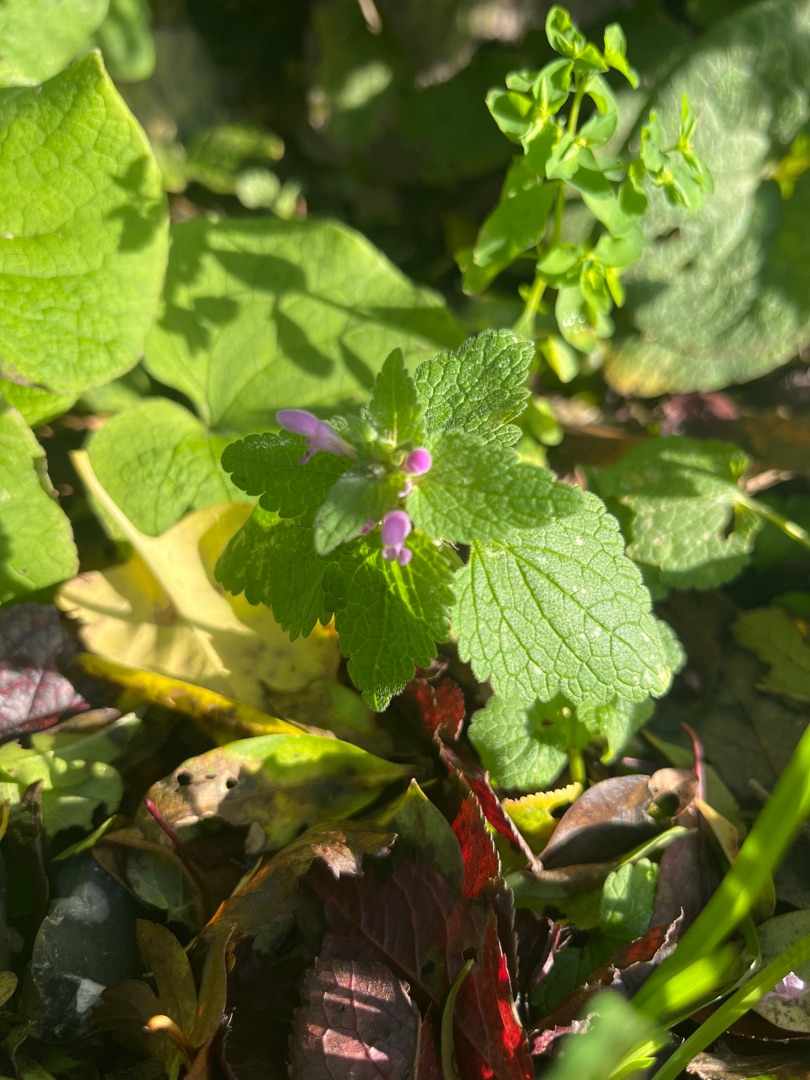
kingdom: Plantae
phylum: Tracheophyta
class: Magnoliopsida
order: Lamiales
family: Lamiaceae
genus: Lamium
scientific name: Lamium purpureum
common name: Rød tvetand
